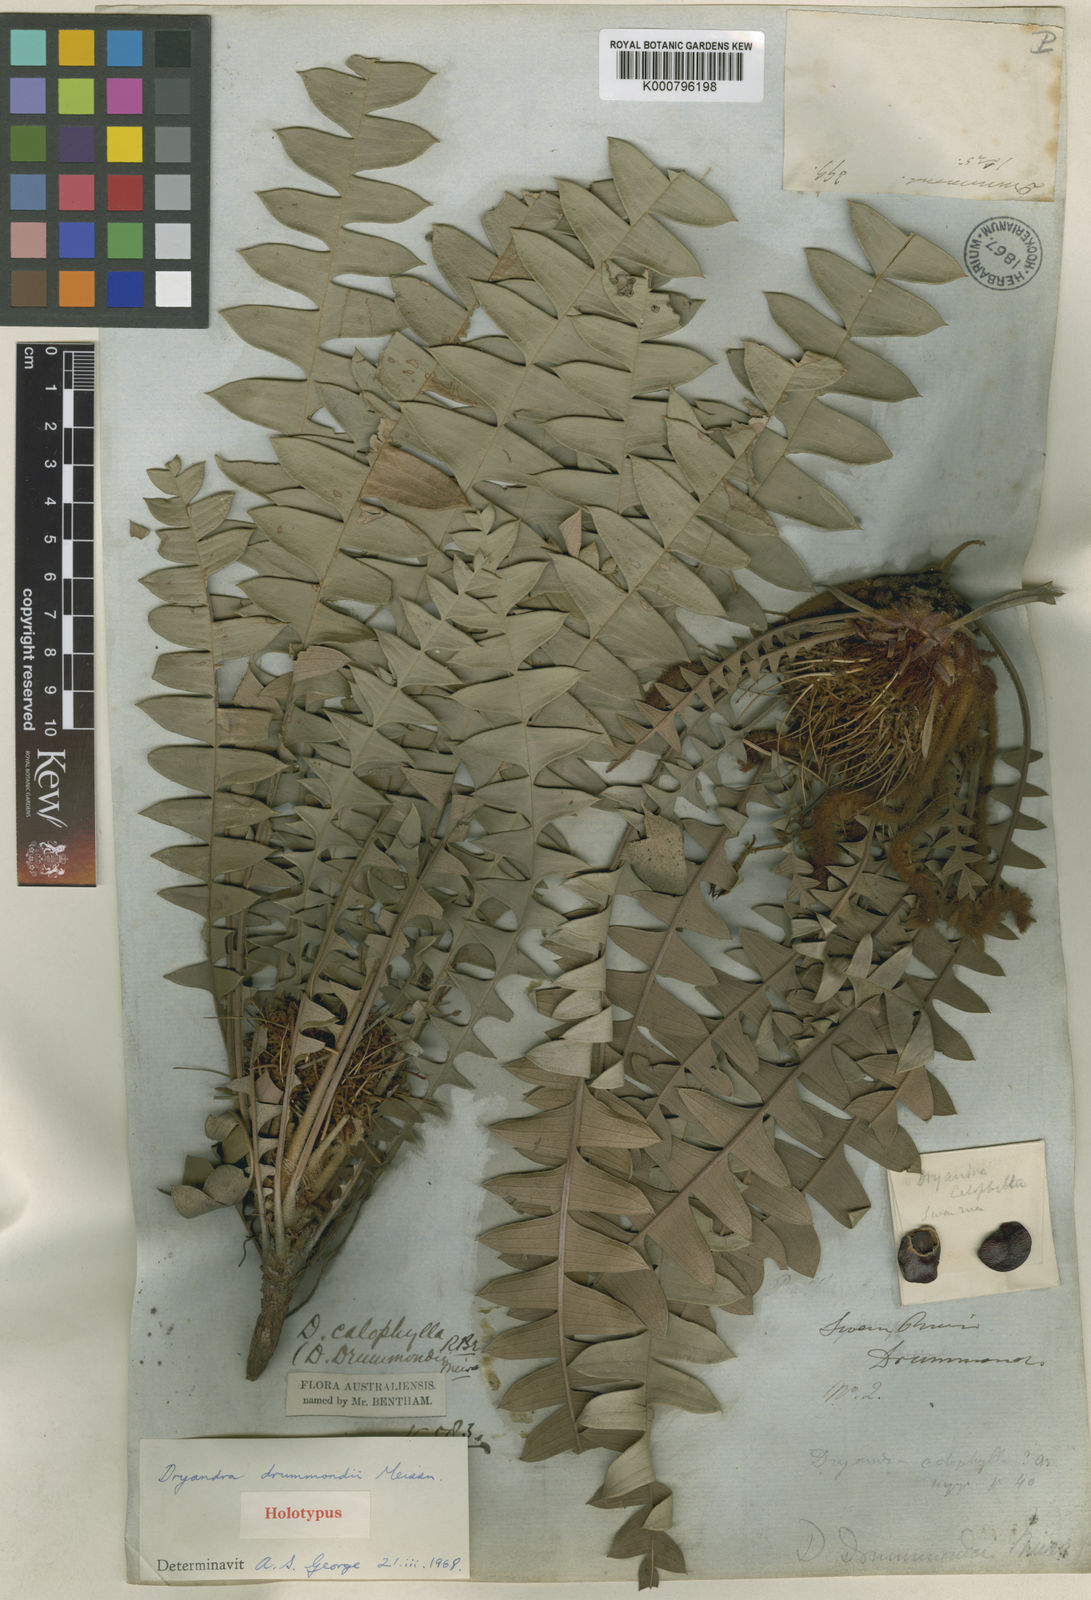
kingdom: Plantae
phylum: Tracheophyta
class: Magnoliopsida
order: Proteales
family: Proteaceae
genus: Banksia
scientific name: Banksia drummondii
